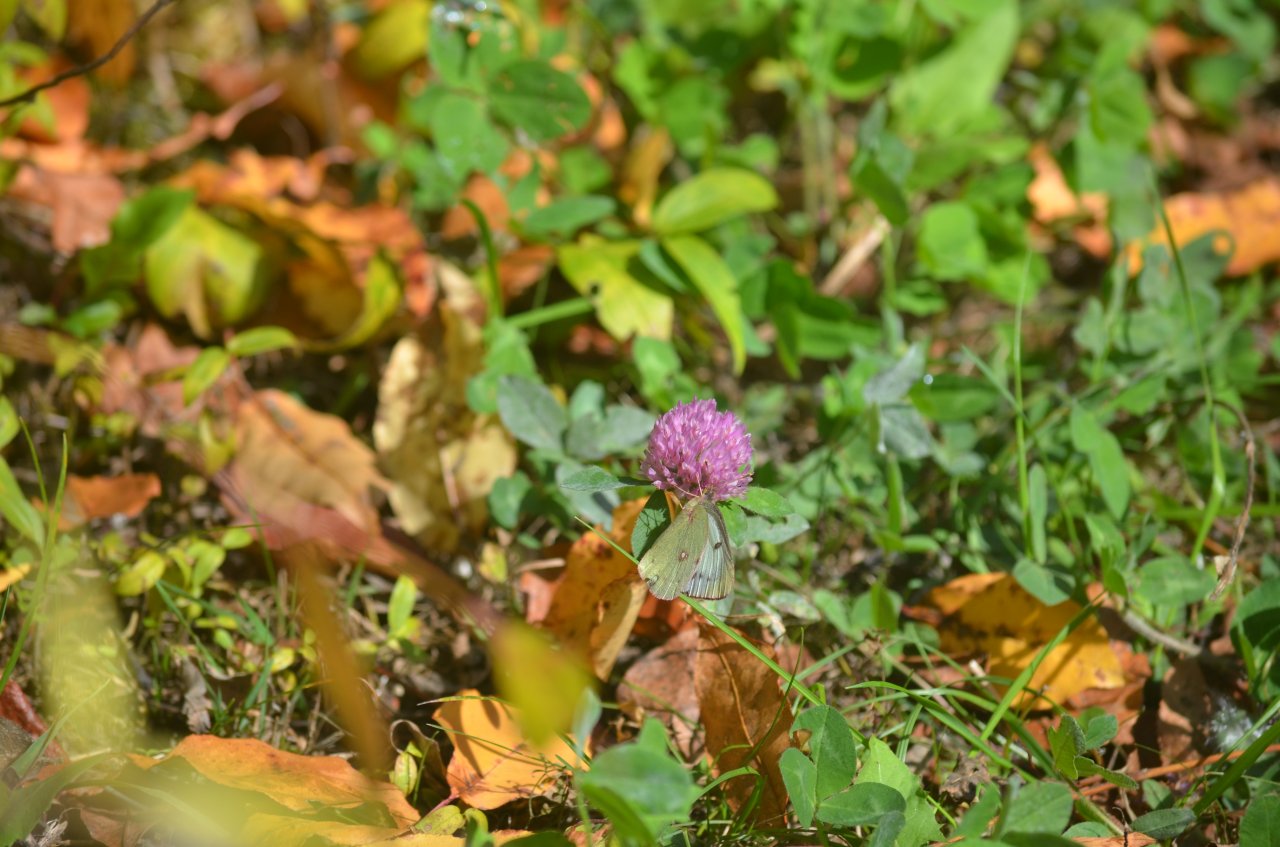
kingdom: Animalia
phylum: Arthropoda
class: Insecta
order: Lepidoptera
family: Pieridae
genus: Colias
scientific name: Colias philodice
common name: Clouded Sulphur
